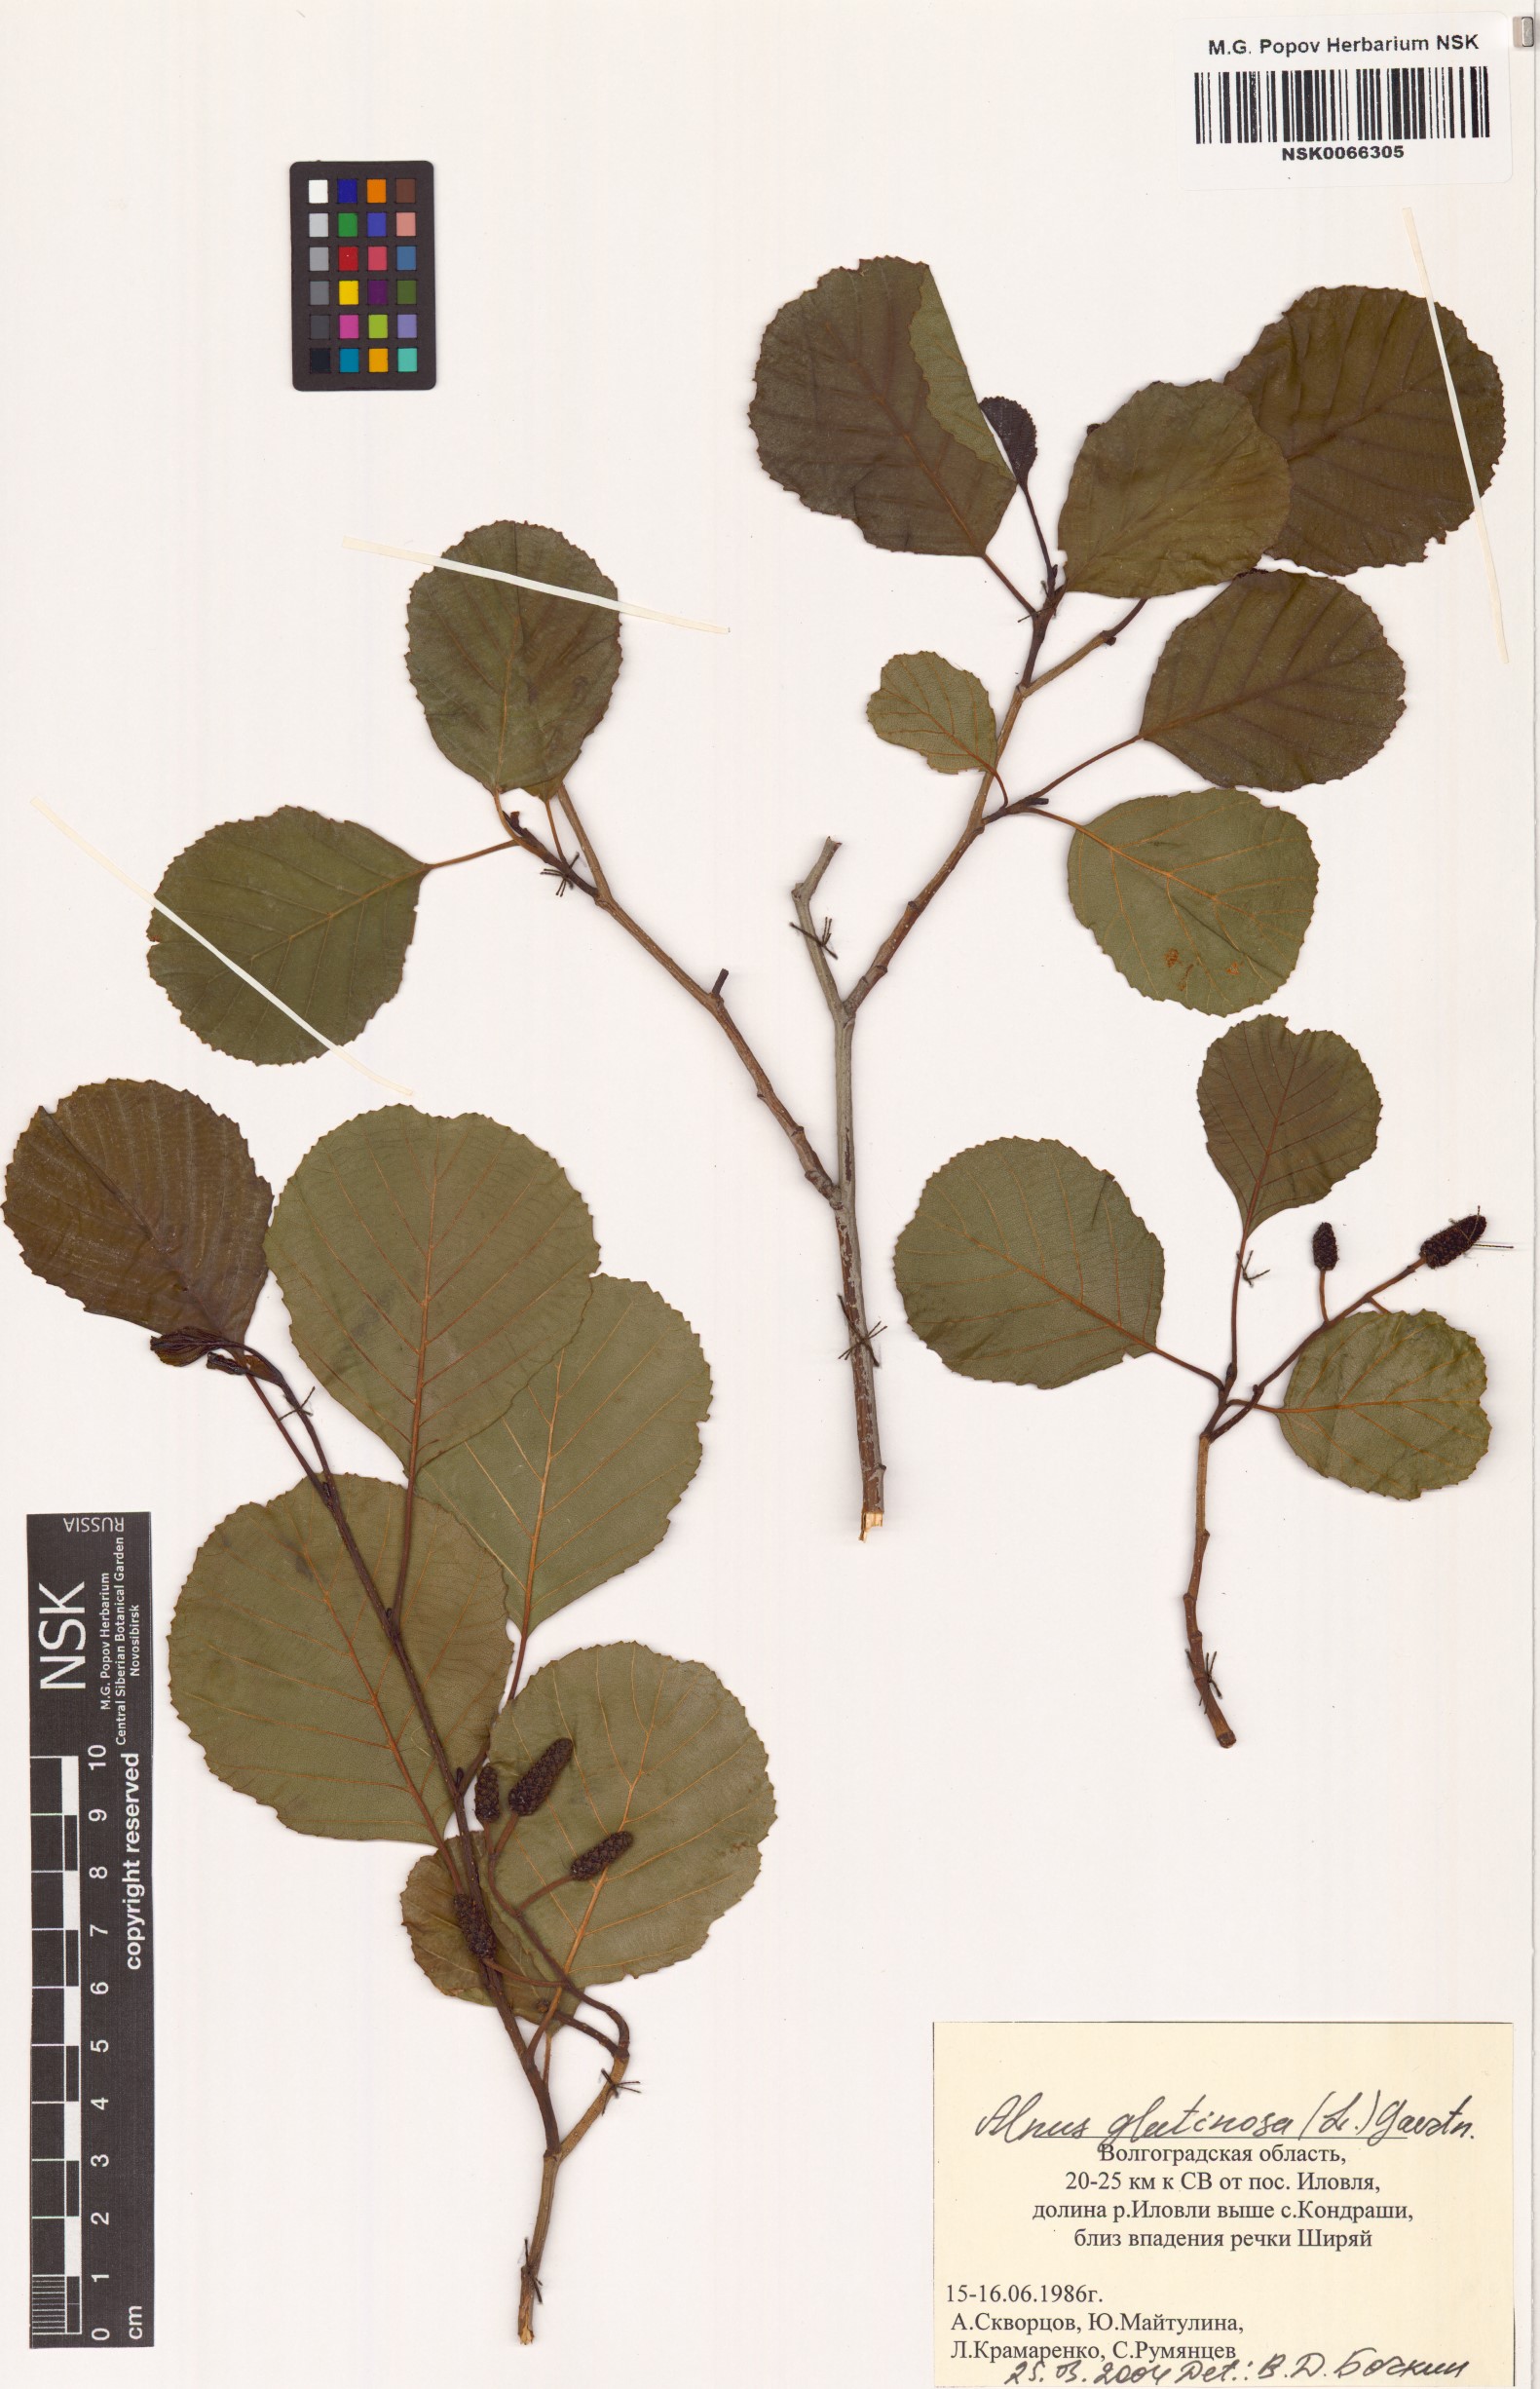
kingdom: Plantae
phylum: Tracheophyta
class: Magnoliopsida
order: Fagales
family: Betulaceae
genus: Alnus
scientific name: Alnus glutinosa
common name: Black alder
